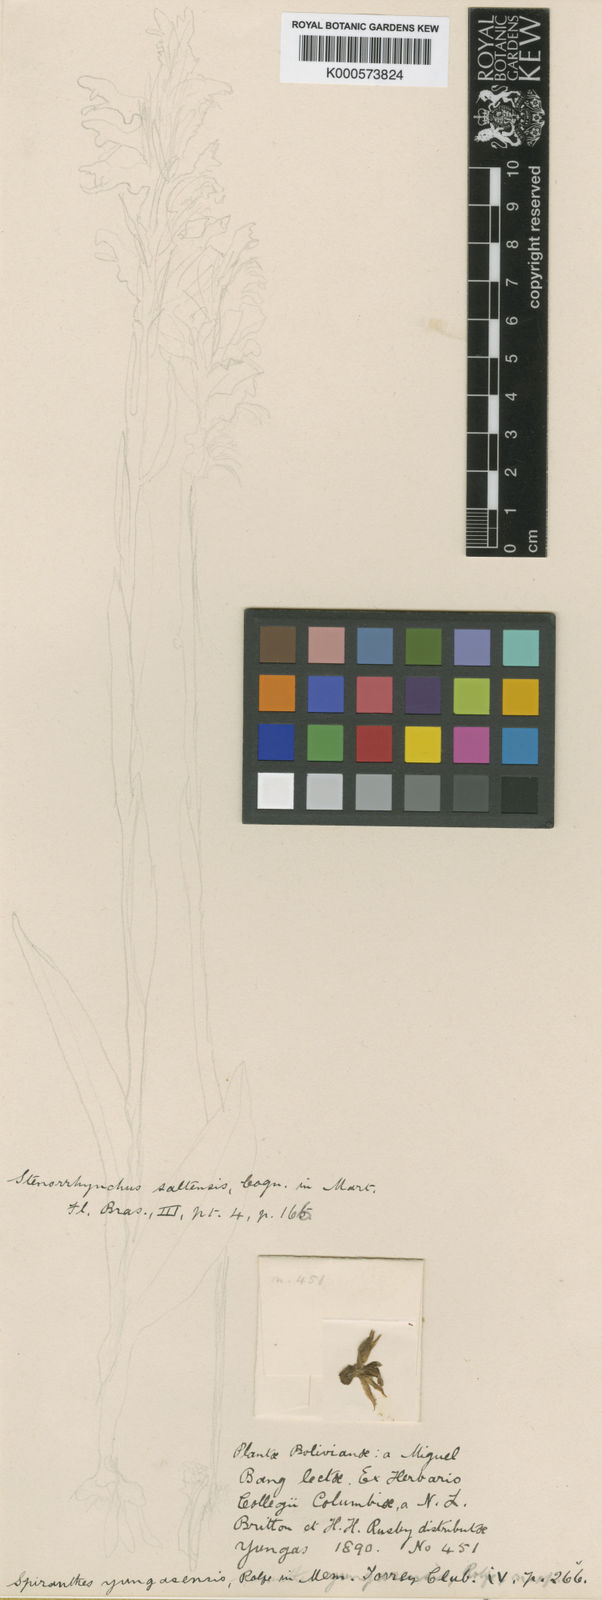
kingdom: Plantae
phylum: Tracheophyta
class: Liliopsida
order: Asparagales
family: Orchidaceae
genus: Pelexia
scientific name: Pelexia bonariensis
